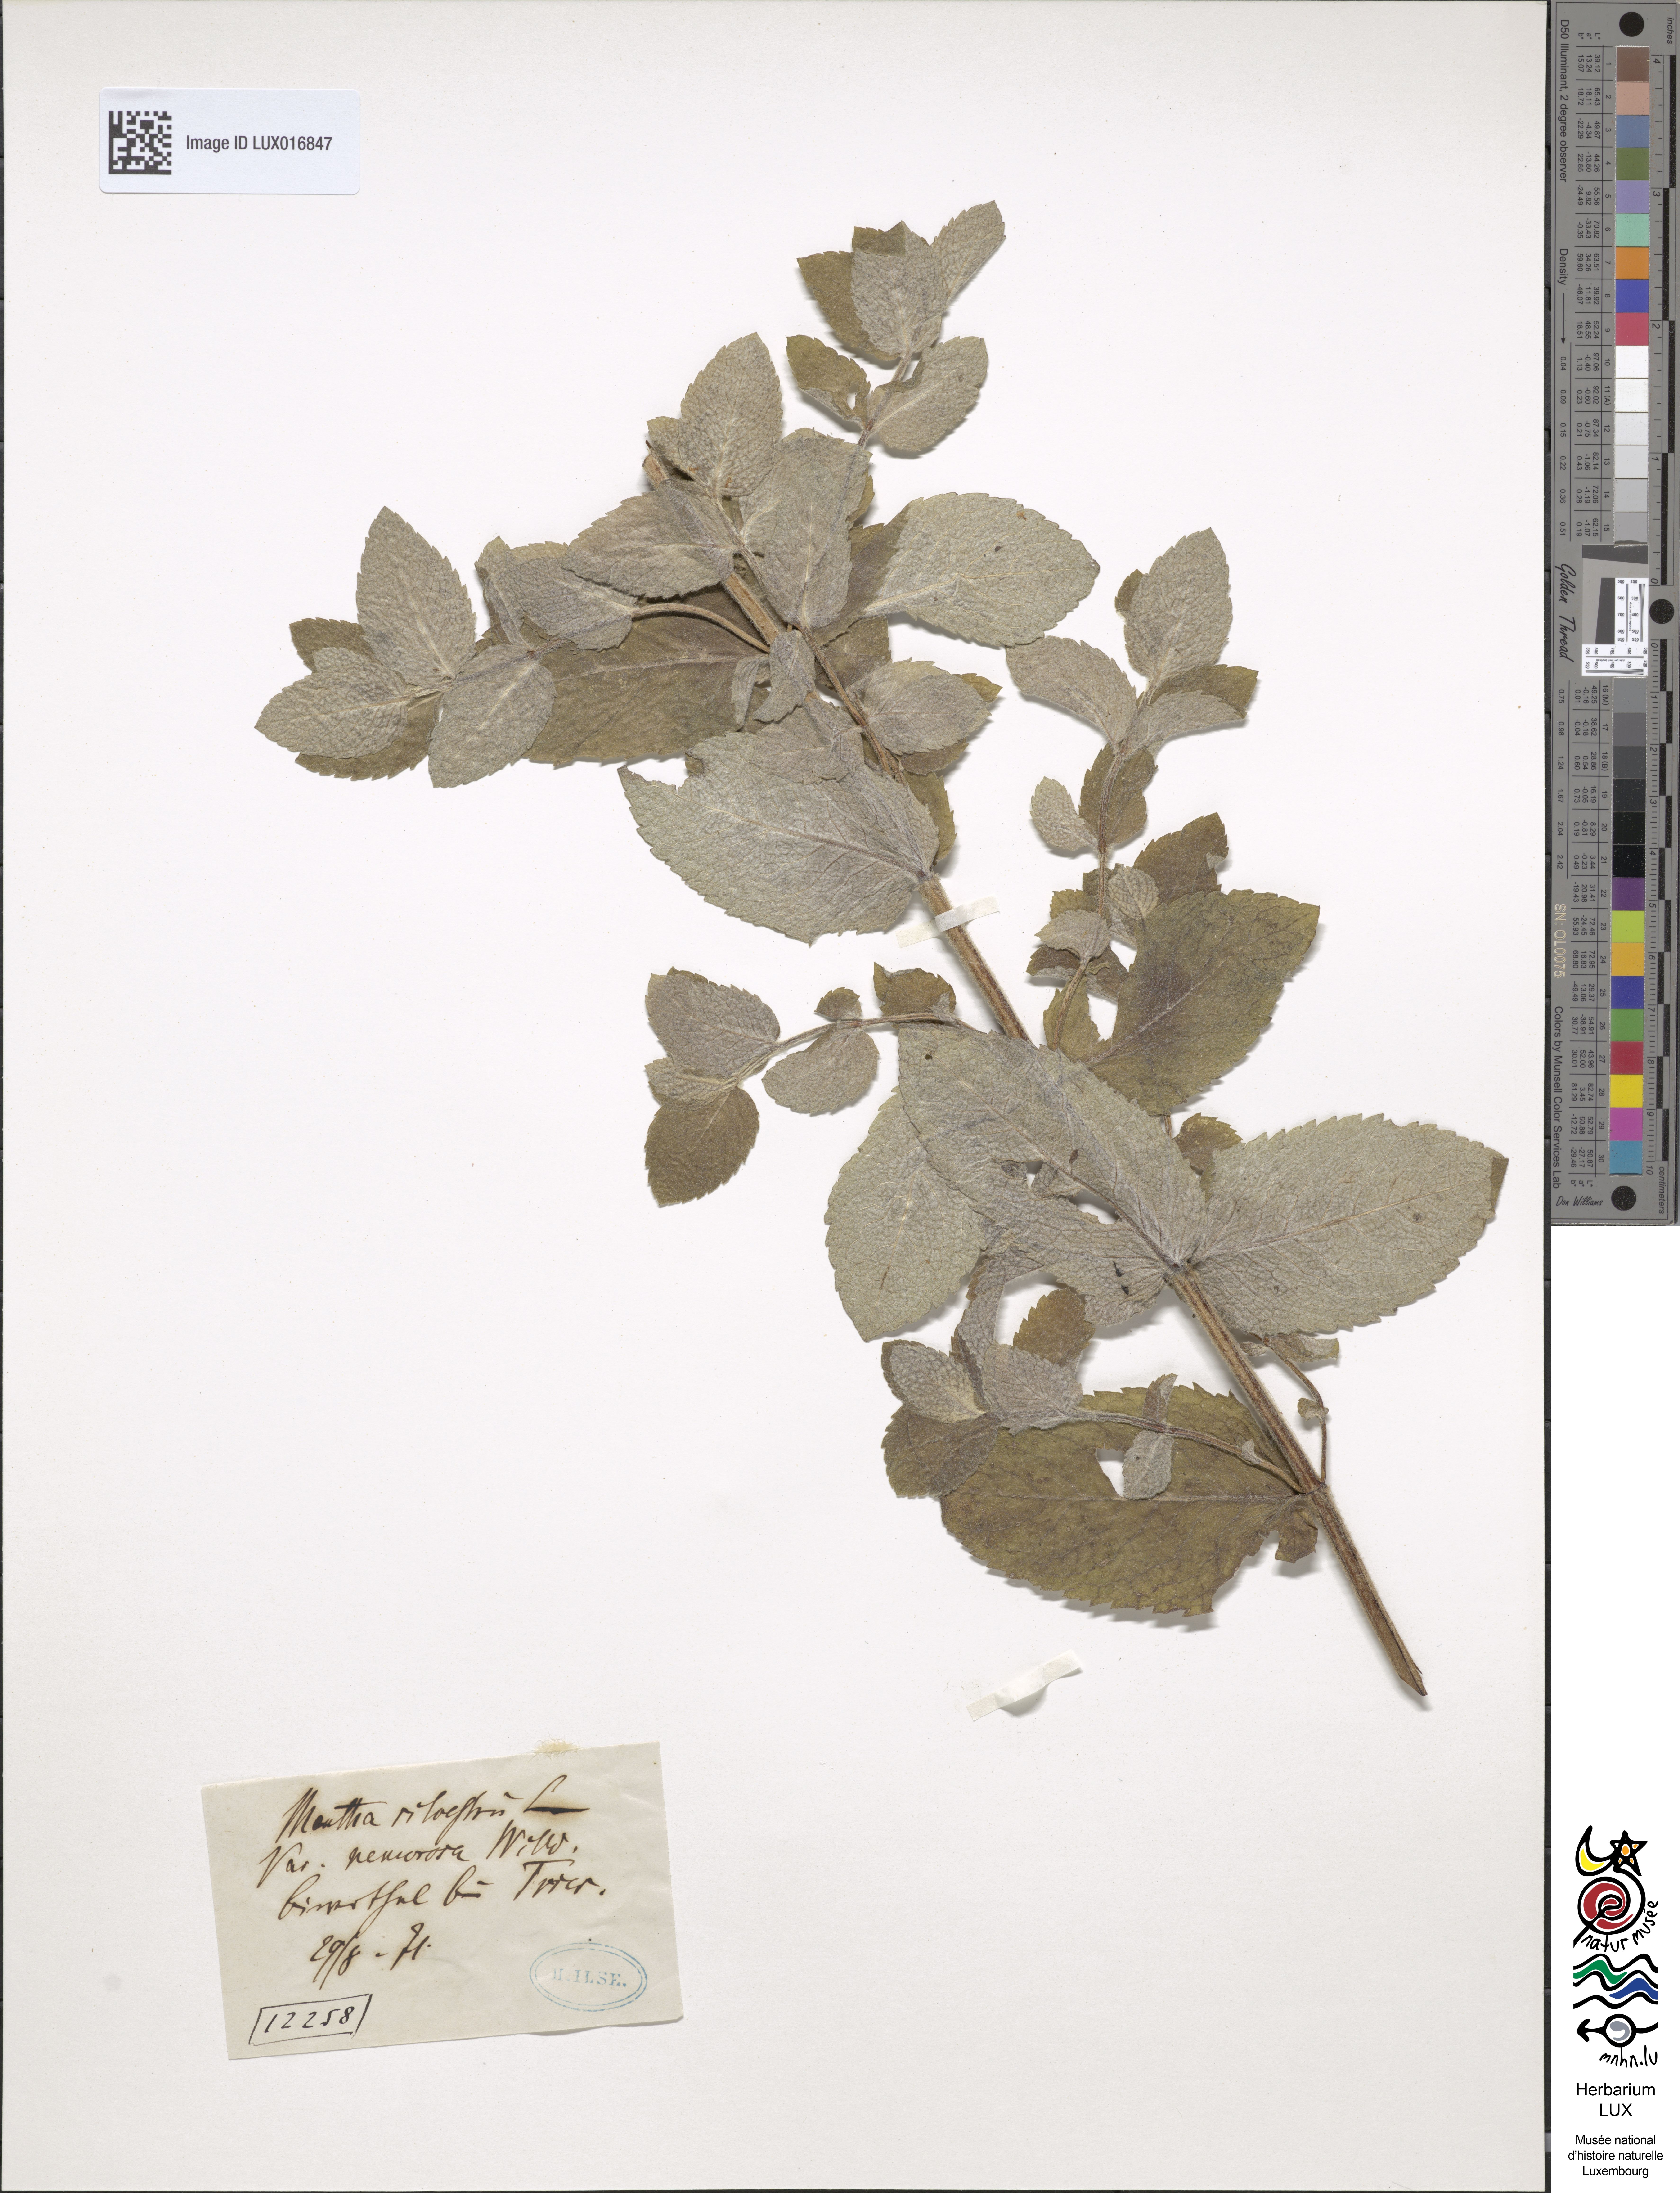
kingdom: Plantae
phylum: Tracheophyta
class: Magnoliopsida
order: Lamiales
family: Lamiaceae
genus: Mentha
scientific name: Mentha longifolia
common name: Horse mint
